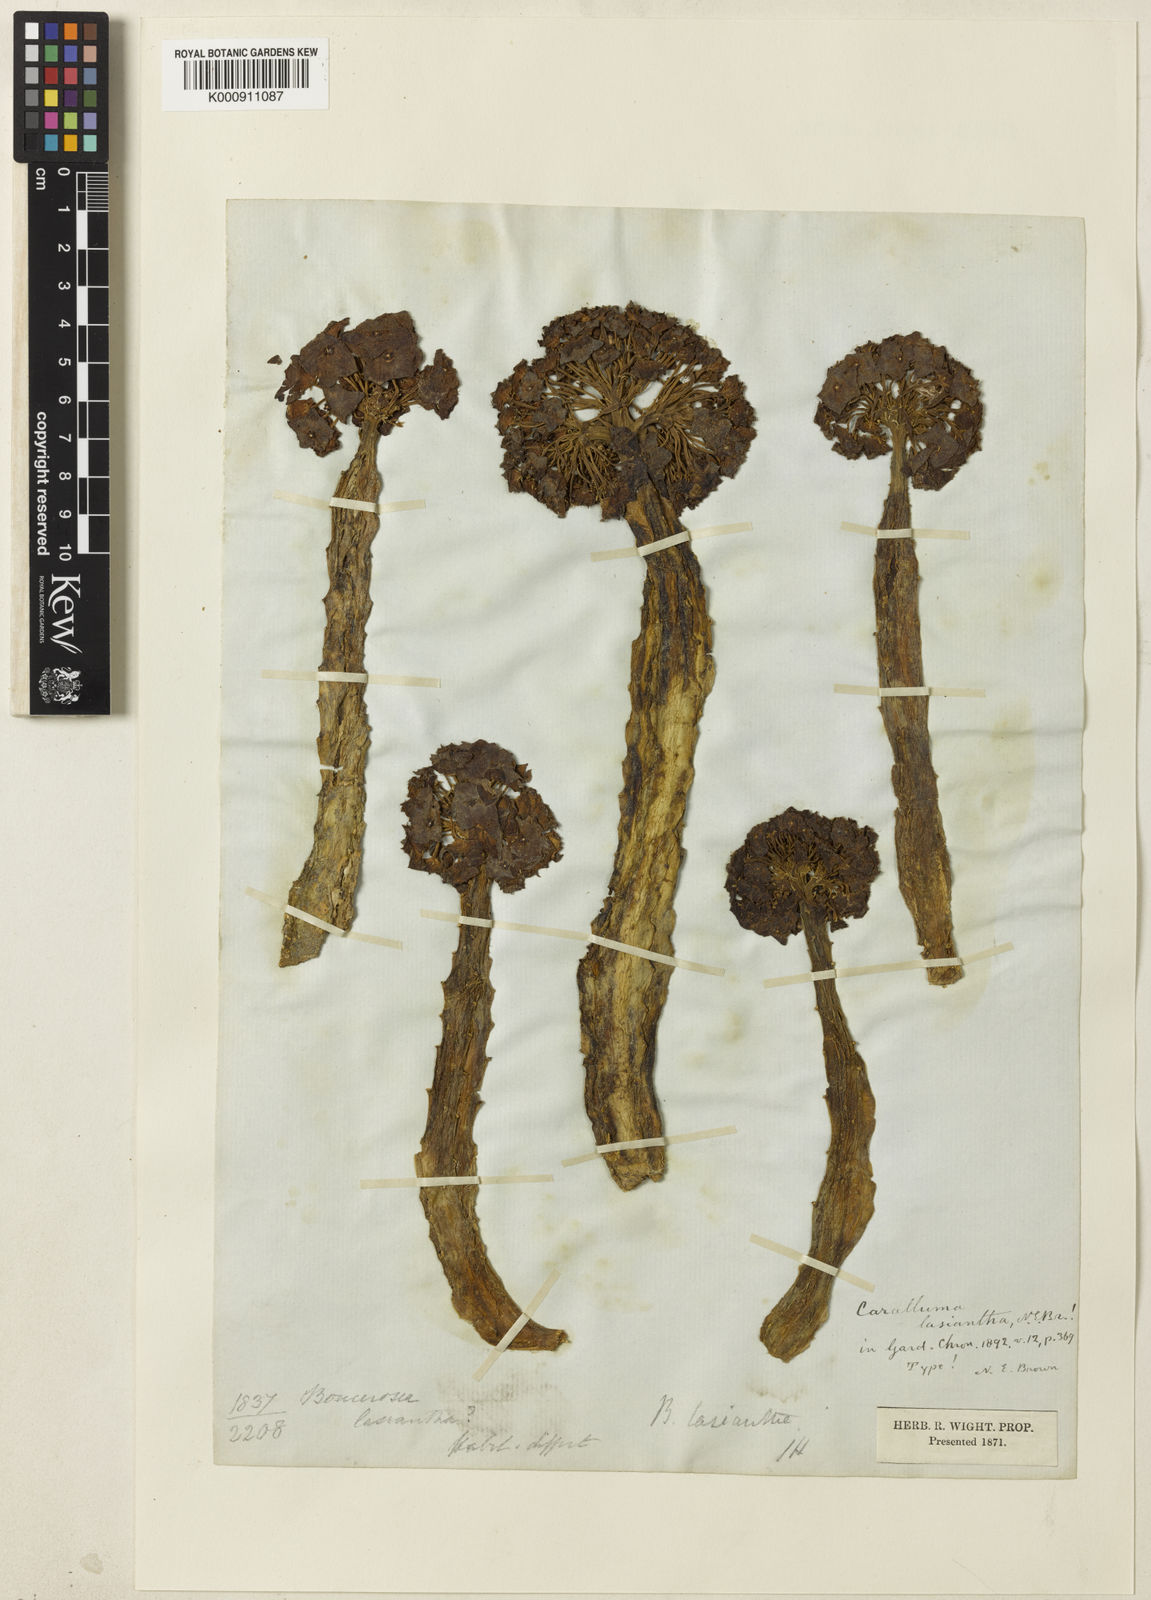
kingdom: Plantae
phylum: Tracheophyta
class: Magnoliopsida
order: Gentianales
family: Apocynaceae
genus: Ceropegia
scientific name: Ceropegia umbellata
